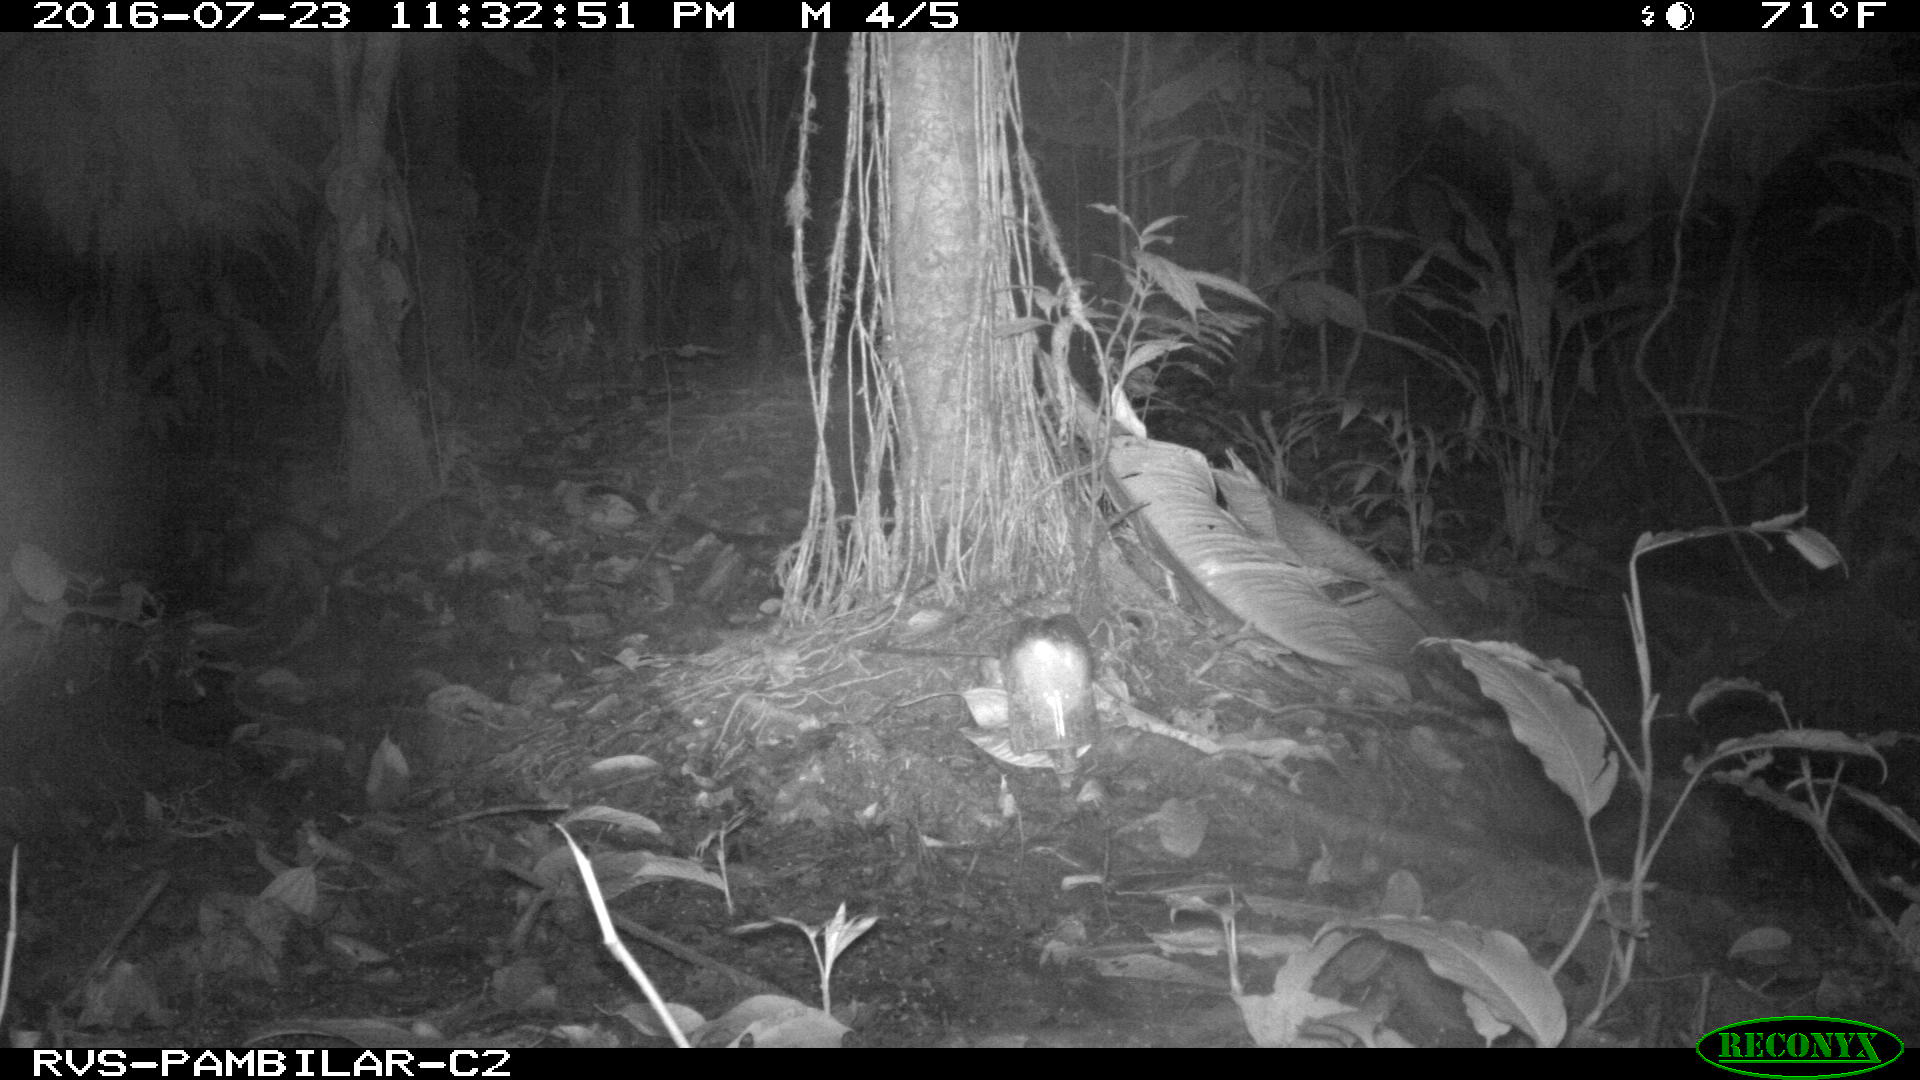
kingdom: Animalia
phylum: Chordata
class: Mammalia
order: Didelphimorphia
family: Didelphidae
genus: Didelphis
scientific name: Didelphis marsupialis
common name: Common opossum
